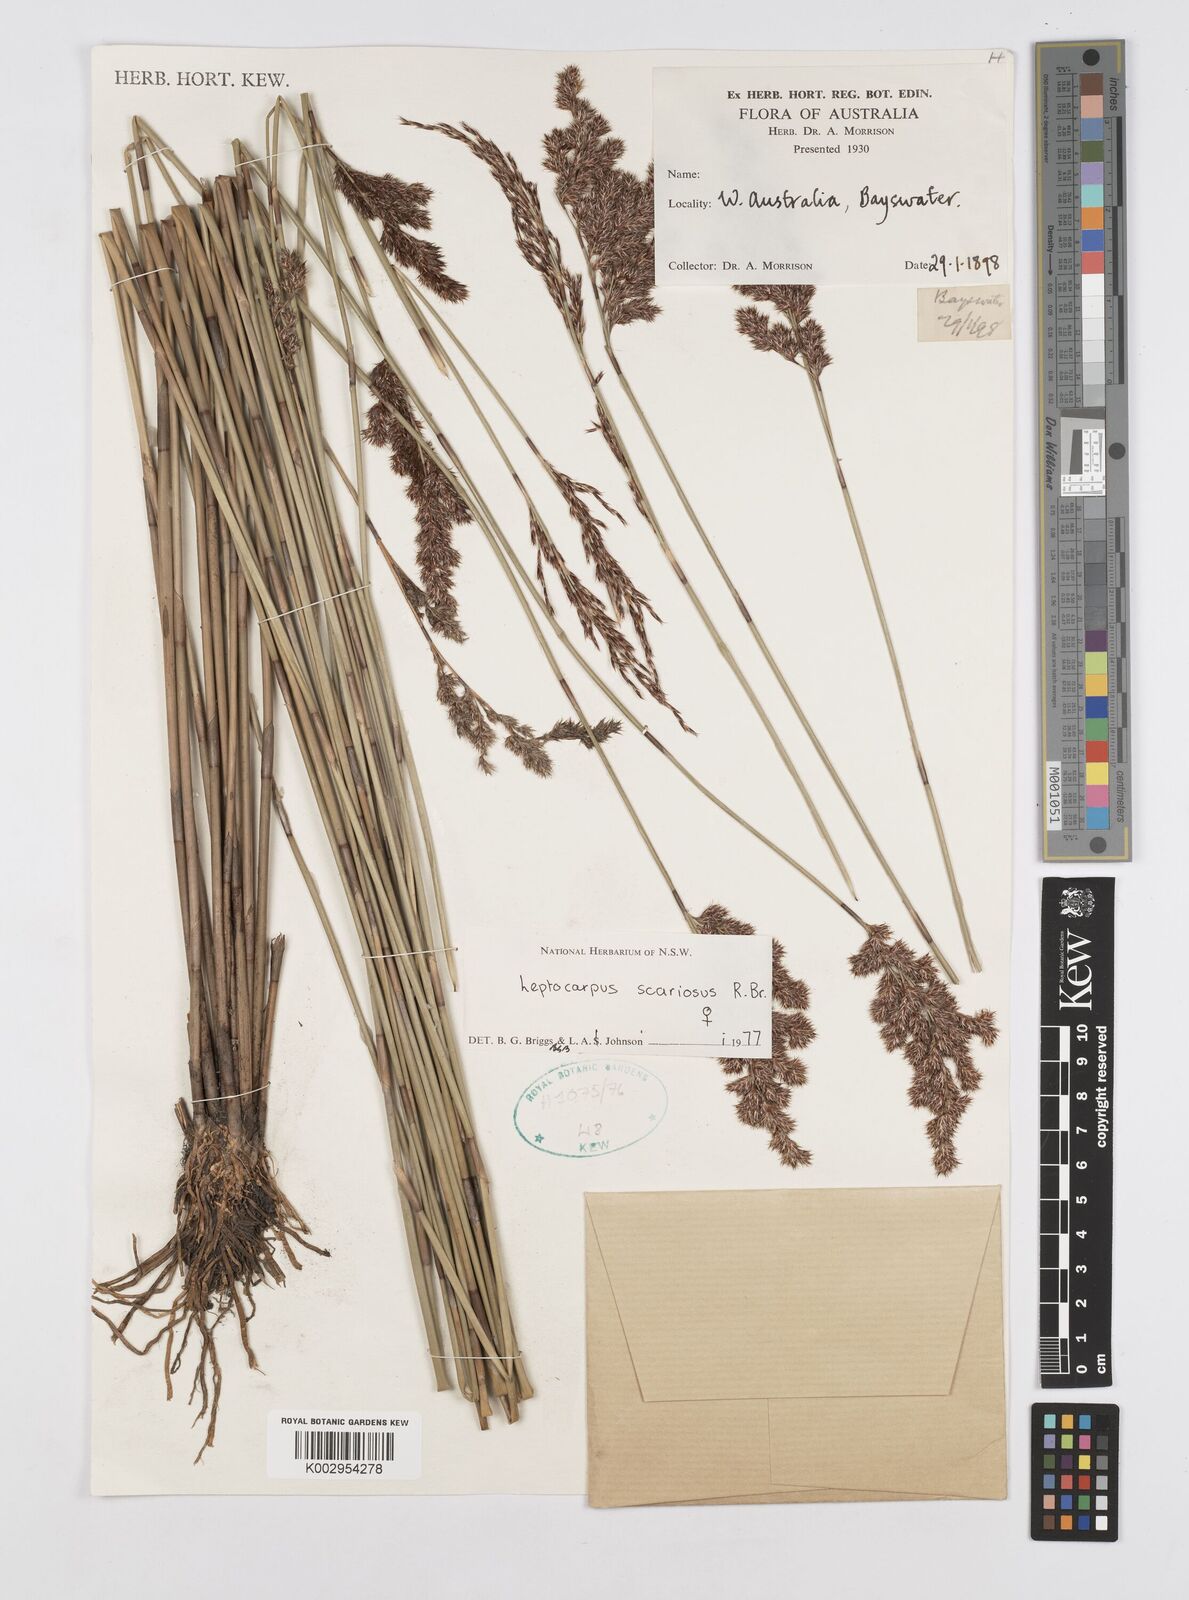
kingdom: Plantae
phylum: Tracheophyta
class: Liliopsida
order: Poales
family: Restionaceae
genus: Leptocarpus
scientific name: Leptocarpus scariosus
